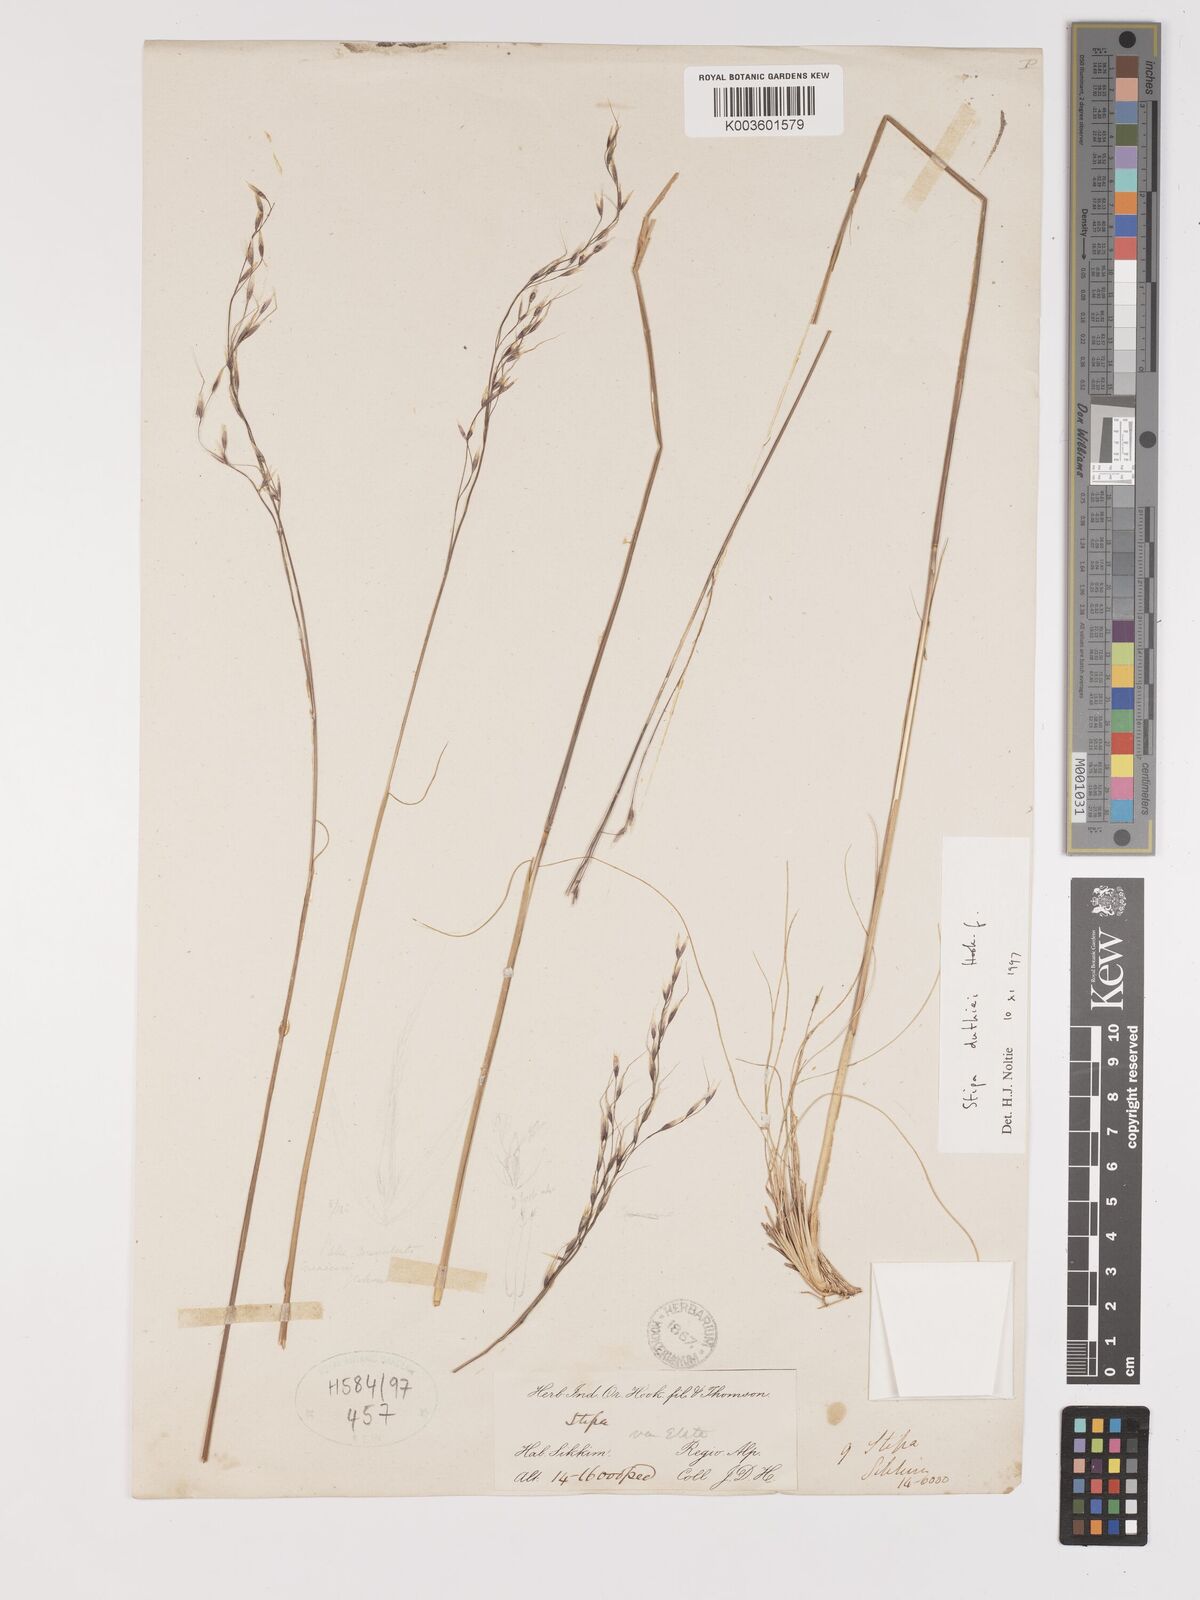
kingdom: Plantae
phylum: Tracheophyta
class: Liliopsida
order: Poales
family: Poaceae
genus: Ptilagrostis
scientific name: Ptilagrostis duthiei
